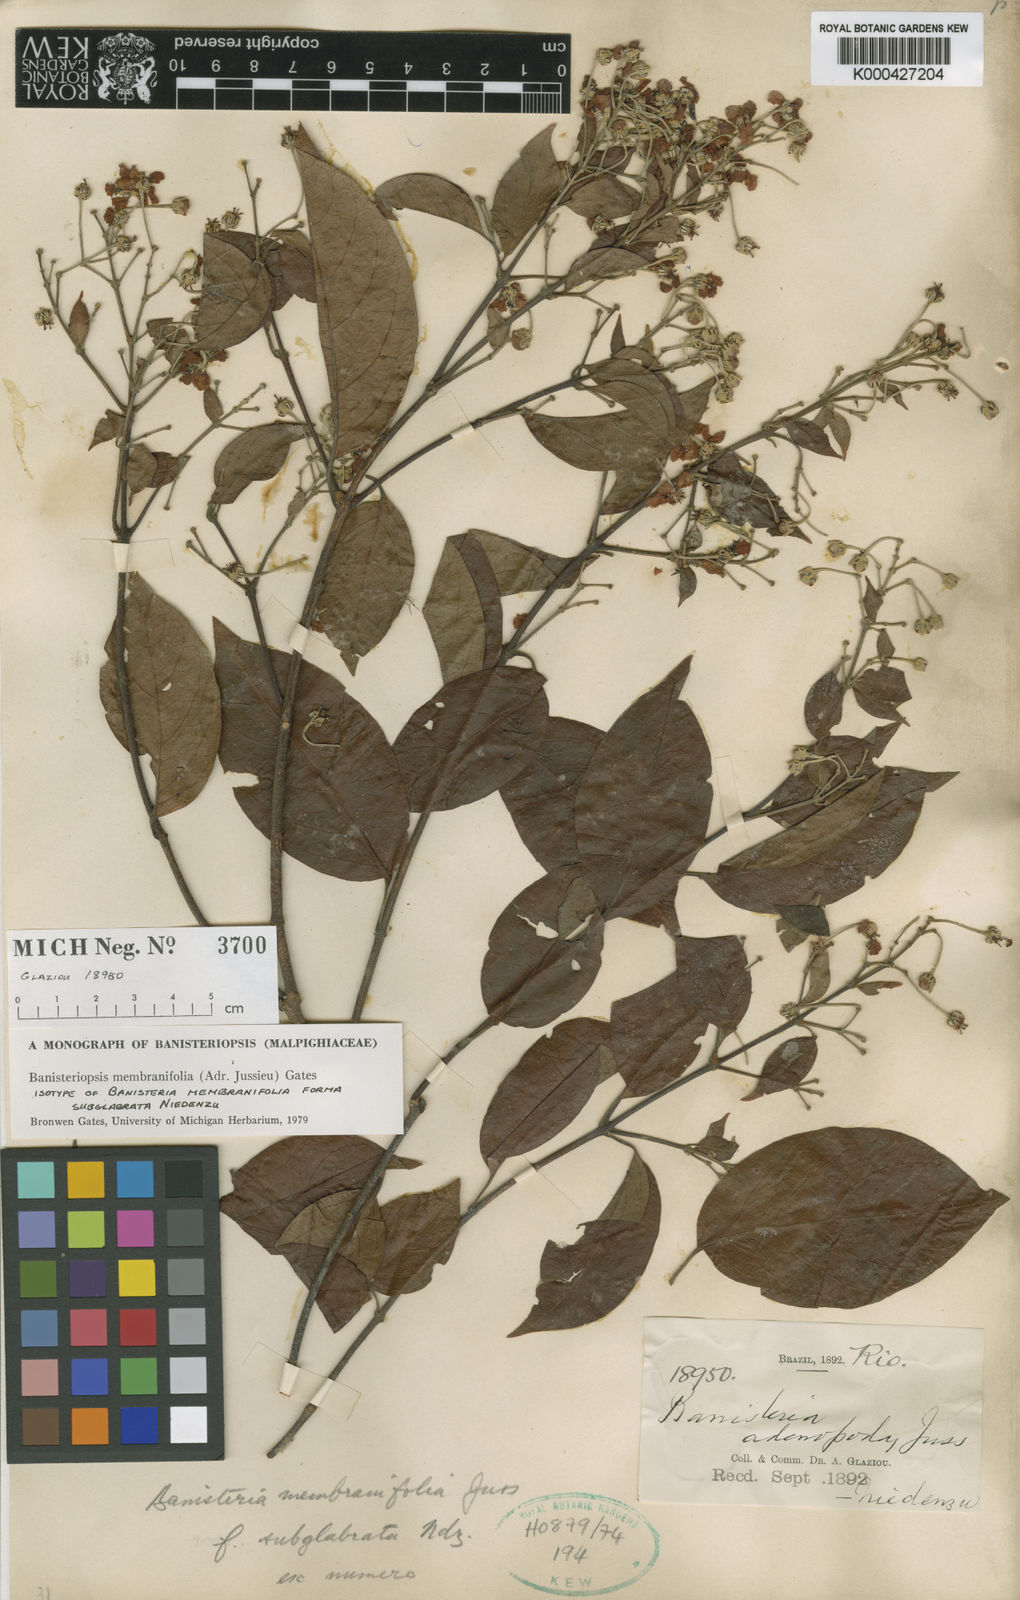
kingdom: Plantae
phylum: Tracheophyta
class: Magnoliopsida
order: Malpighiales
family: Malpighiaceae
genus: Banisteriopsis
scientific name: Banisteriopsis membranifolia
